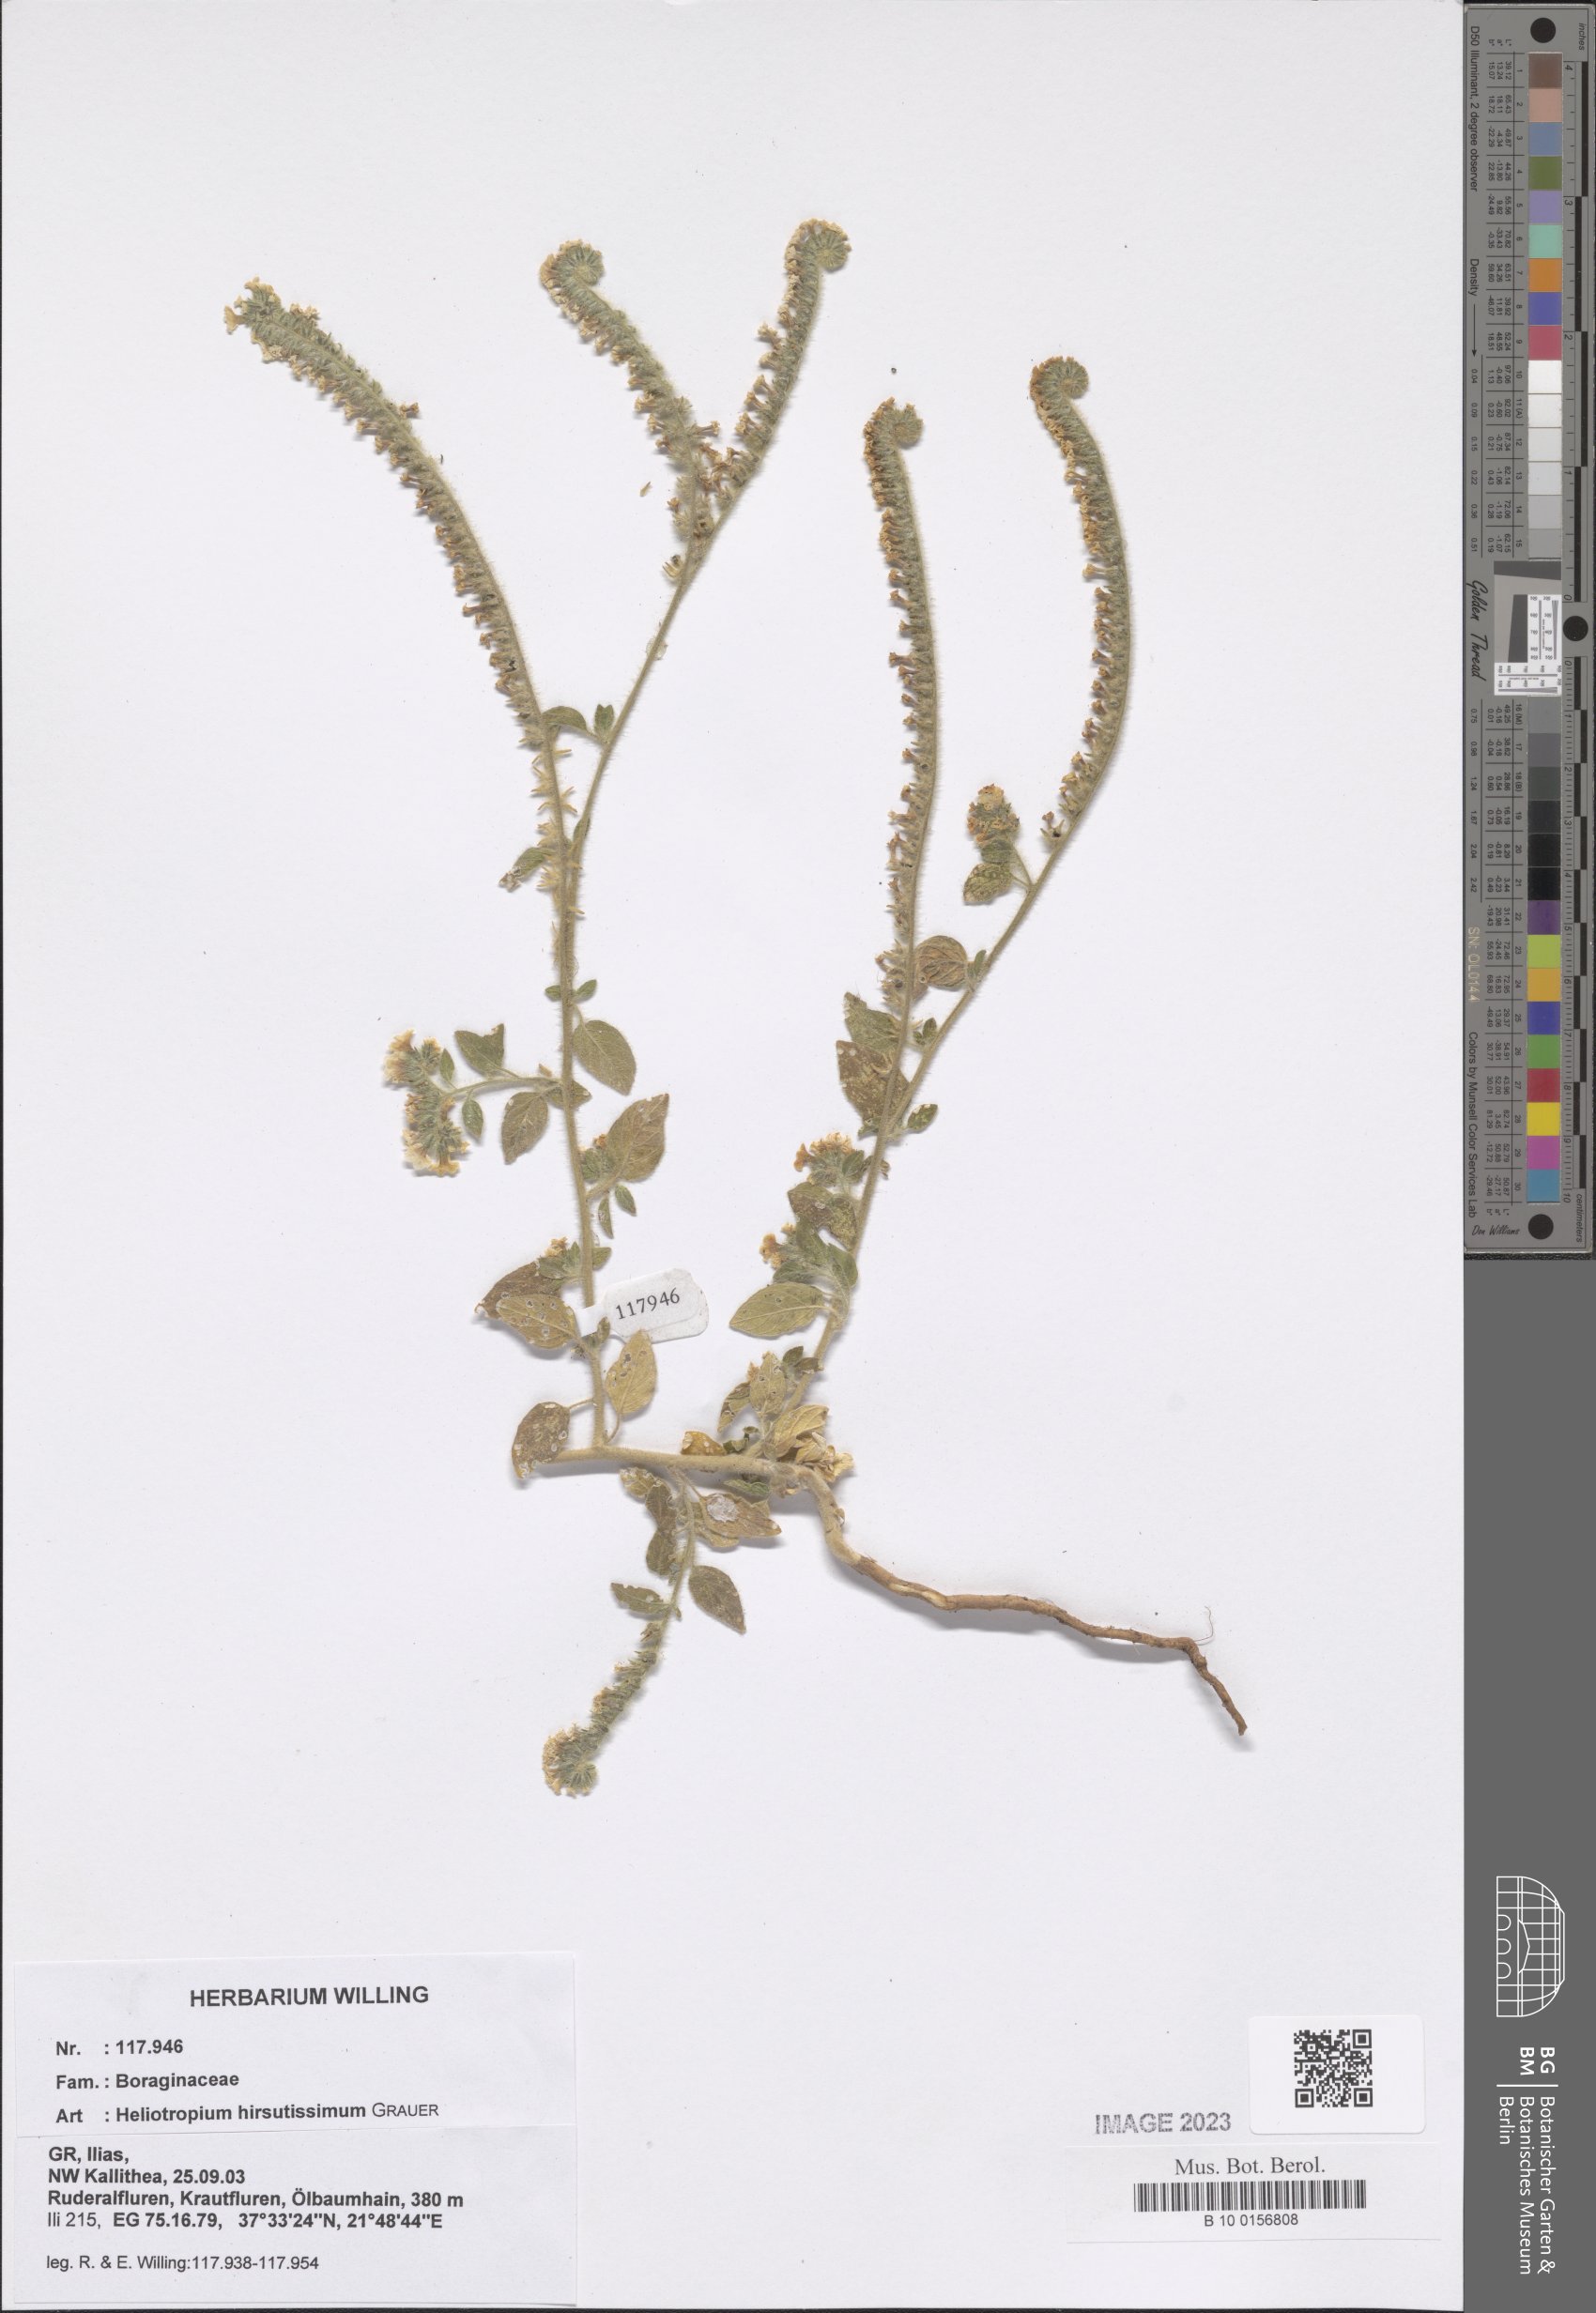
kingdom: Plantae
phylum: Tracheophyta
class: Magnoliopsida
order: Boraginales
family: Heliotropiaceae
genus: Heliotropium
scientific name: Heliotropium hirsutissimum
